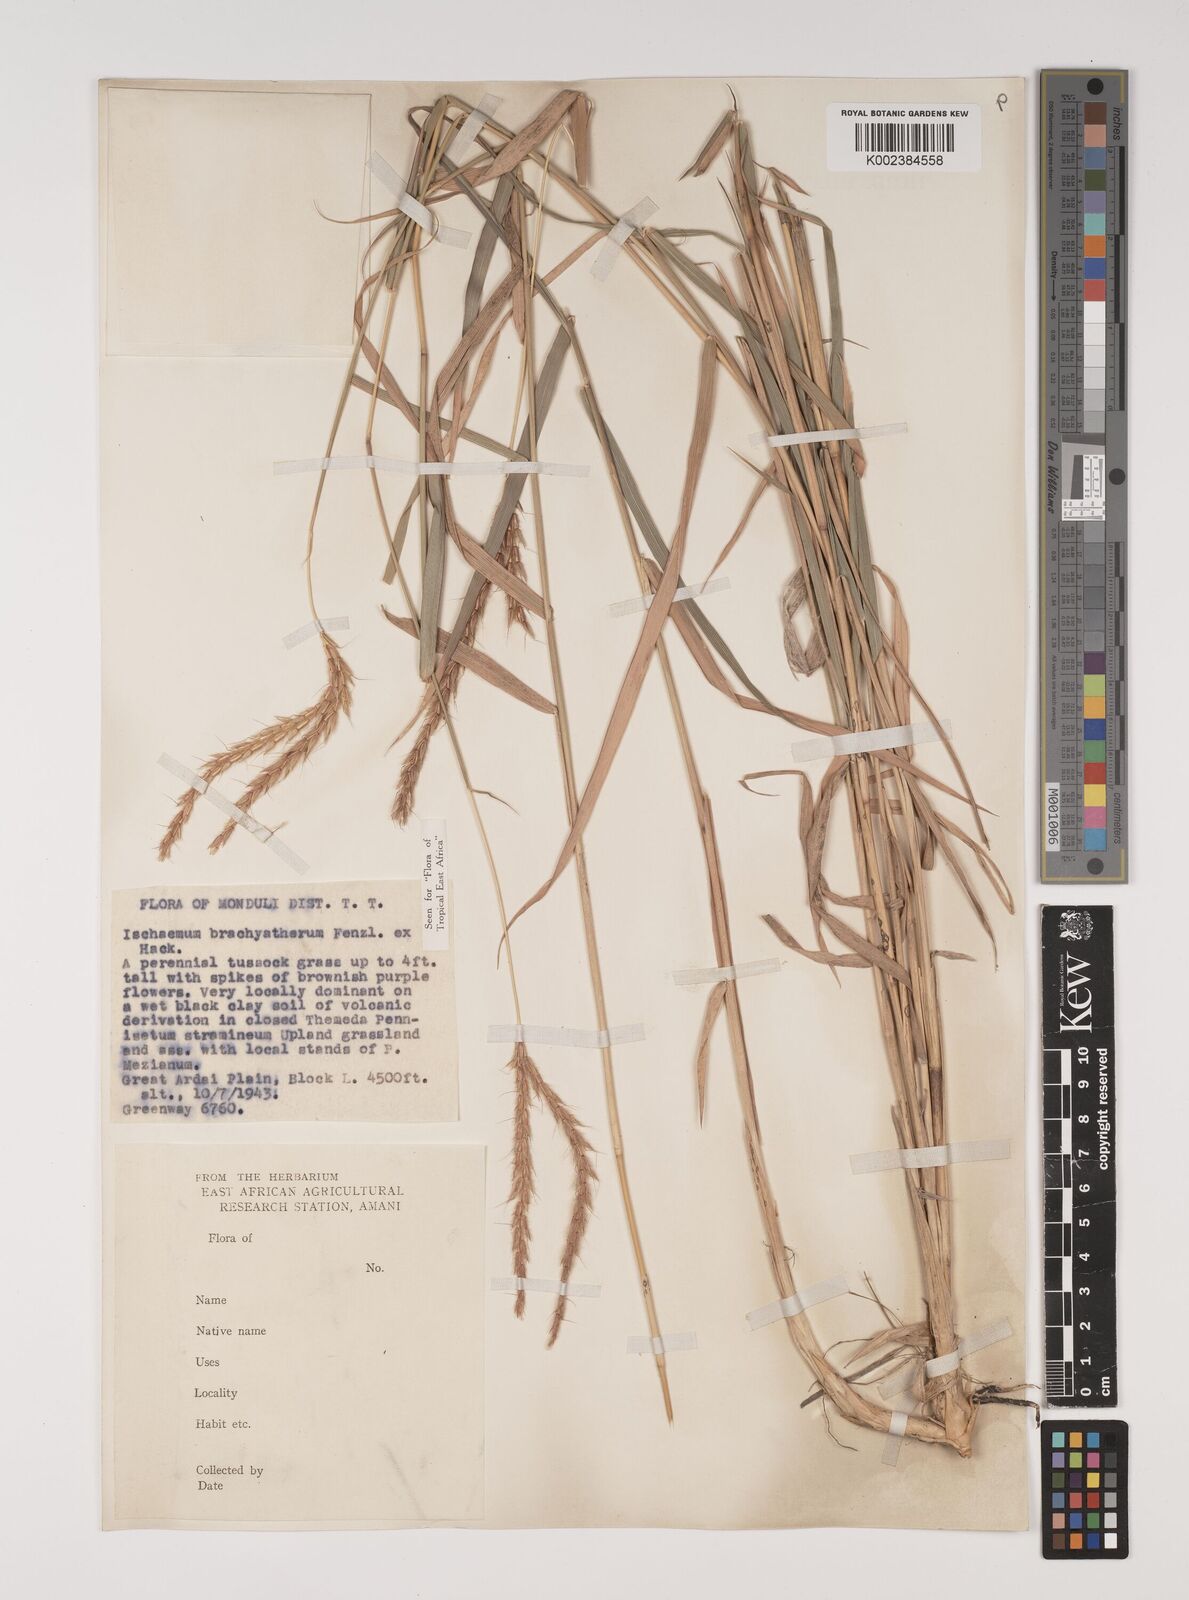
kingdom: Plantae
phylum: Tracheophyta
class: Liliopsida
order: Poales
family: Poaceae
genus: Ischaemum
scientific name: Ischaemum afrum
